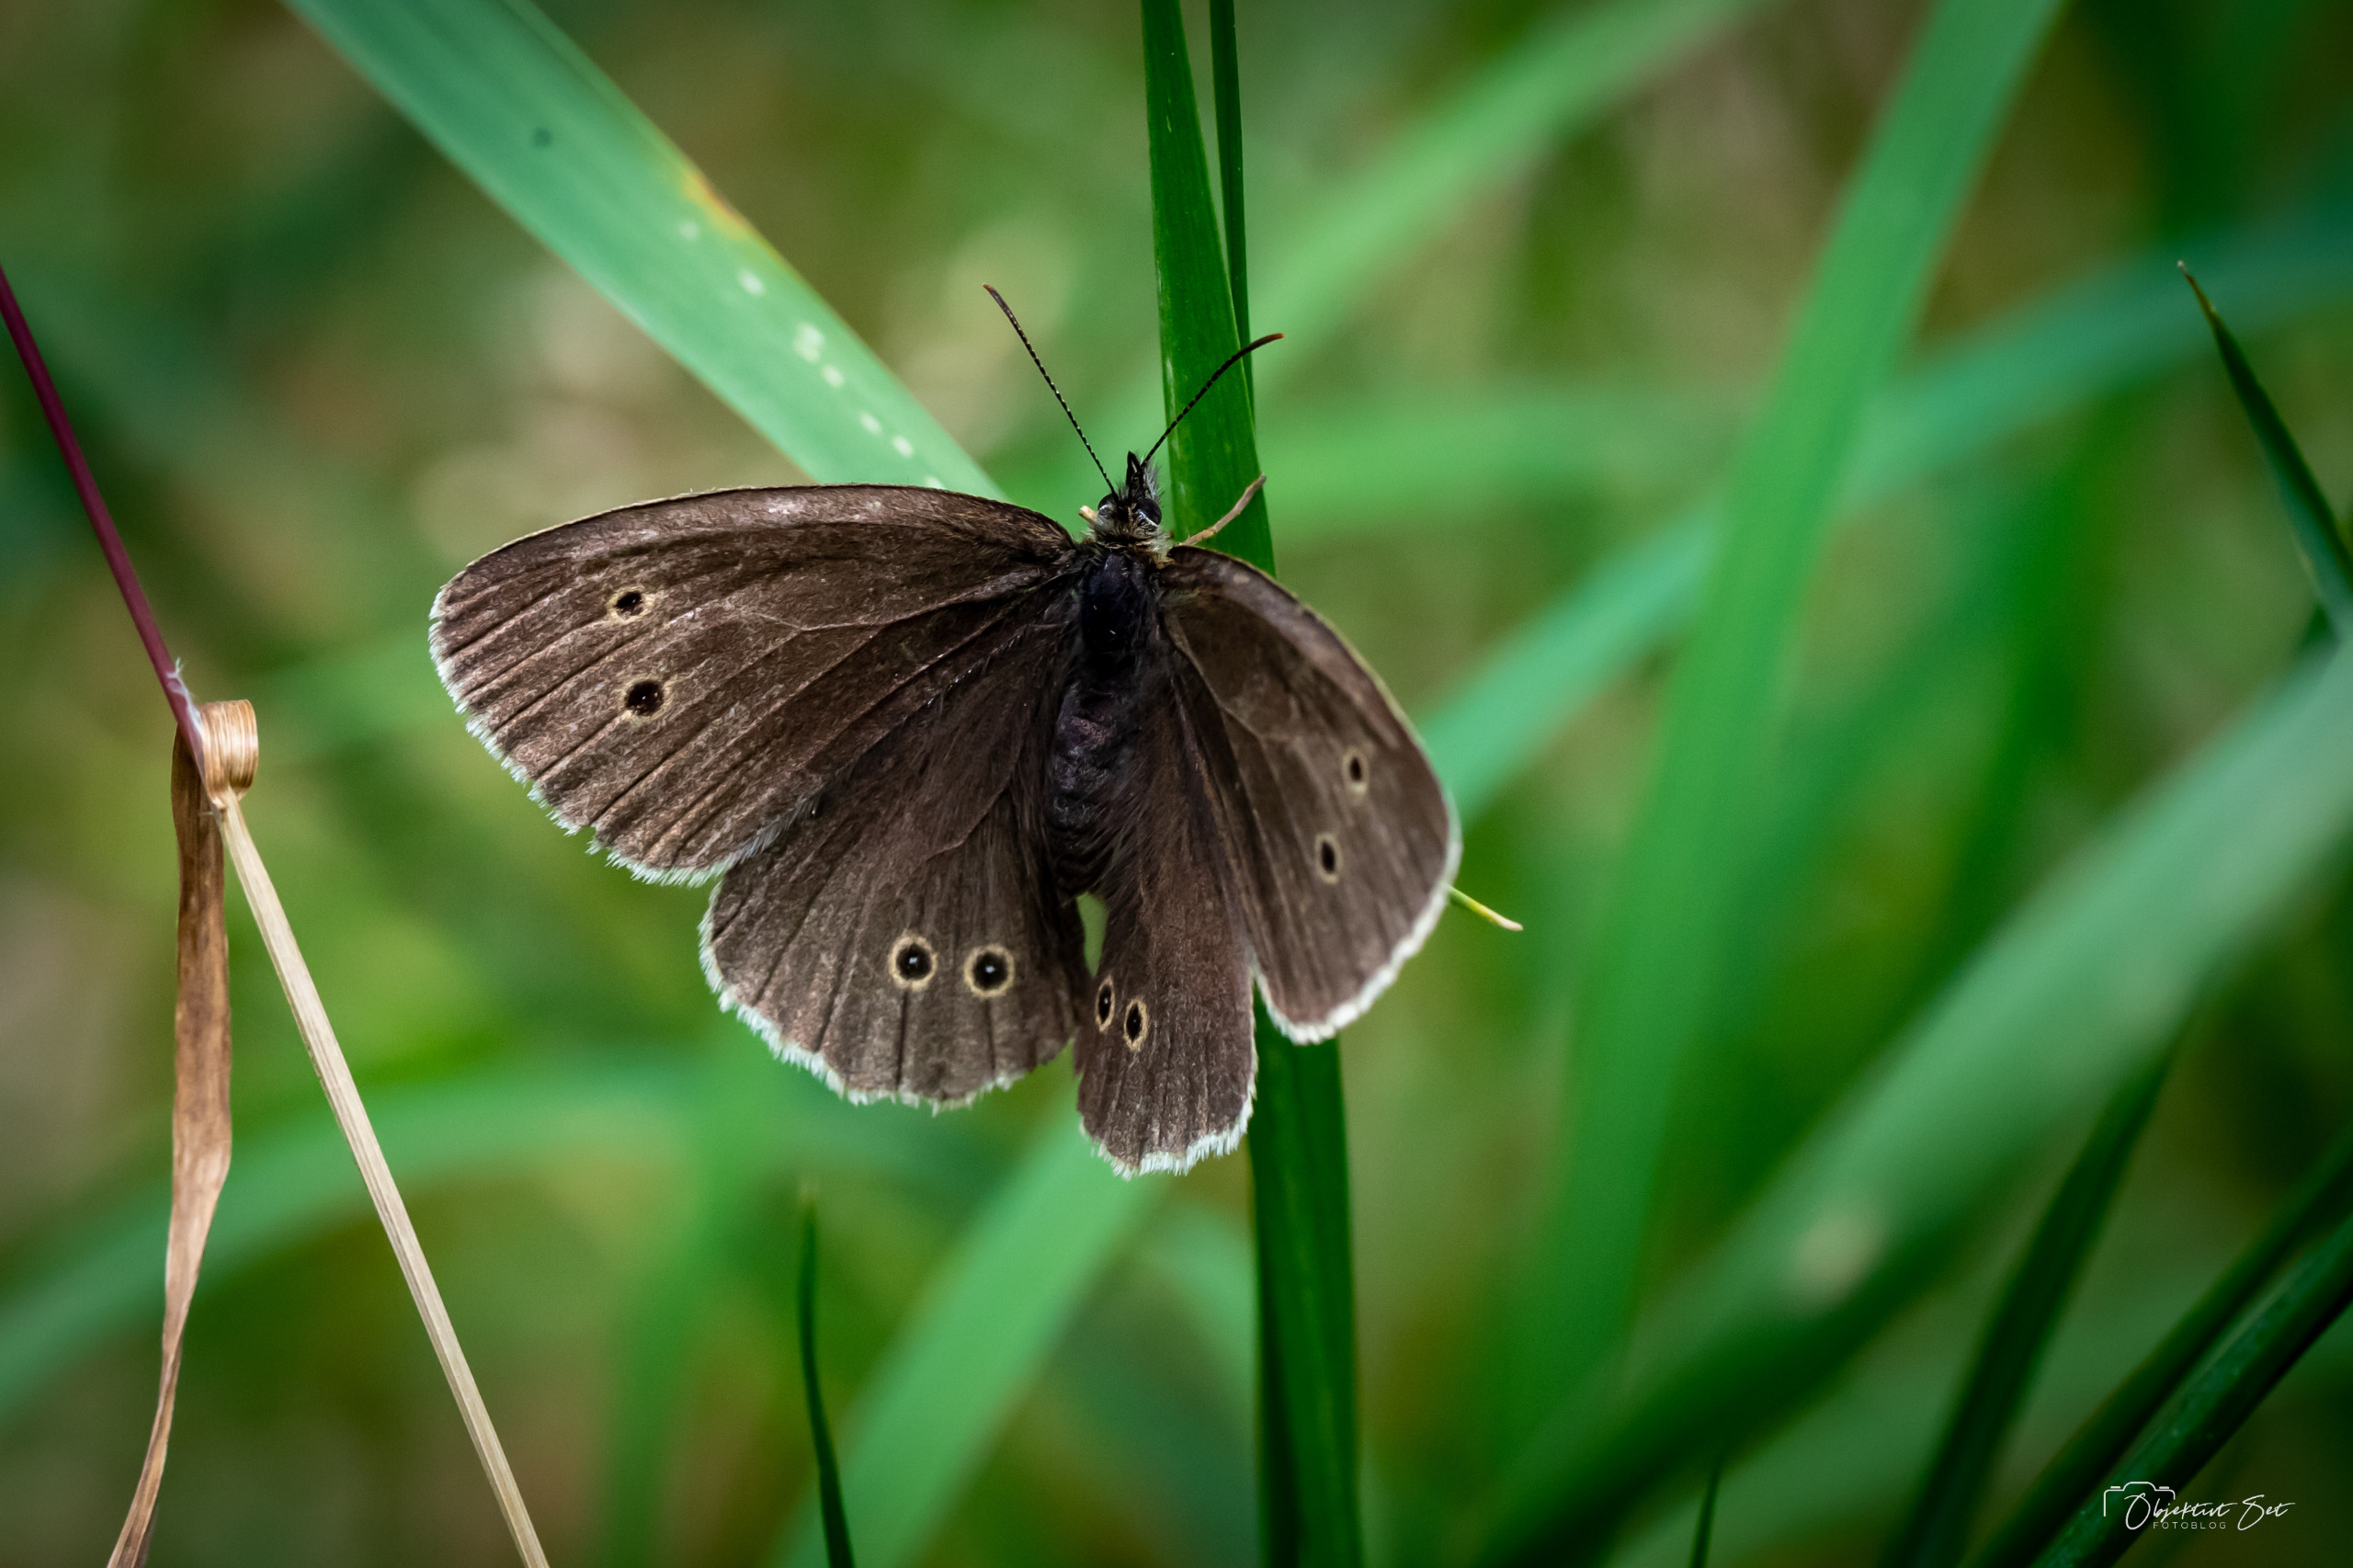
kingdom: Animalia
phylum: Arthropoda
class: Insecta
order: Lepidoptera
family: Nymphalidae
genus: Aphantopus
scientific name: Aphantopus hyperantus
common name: Engrandøje
